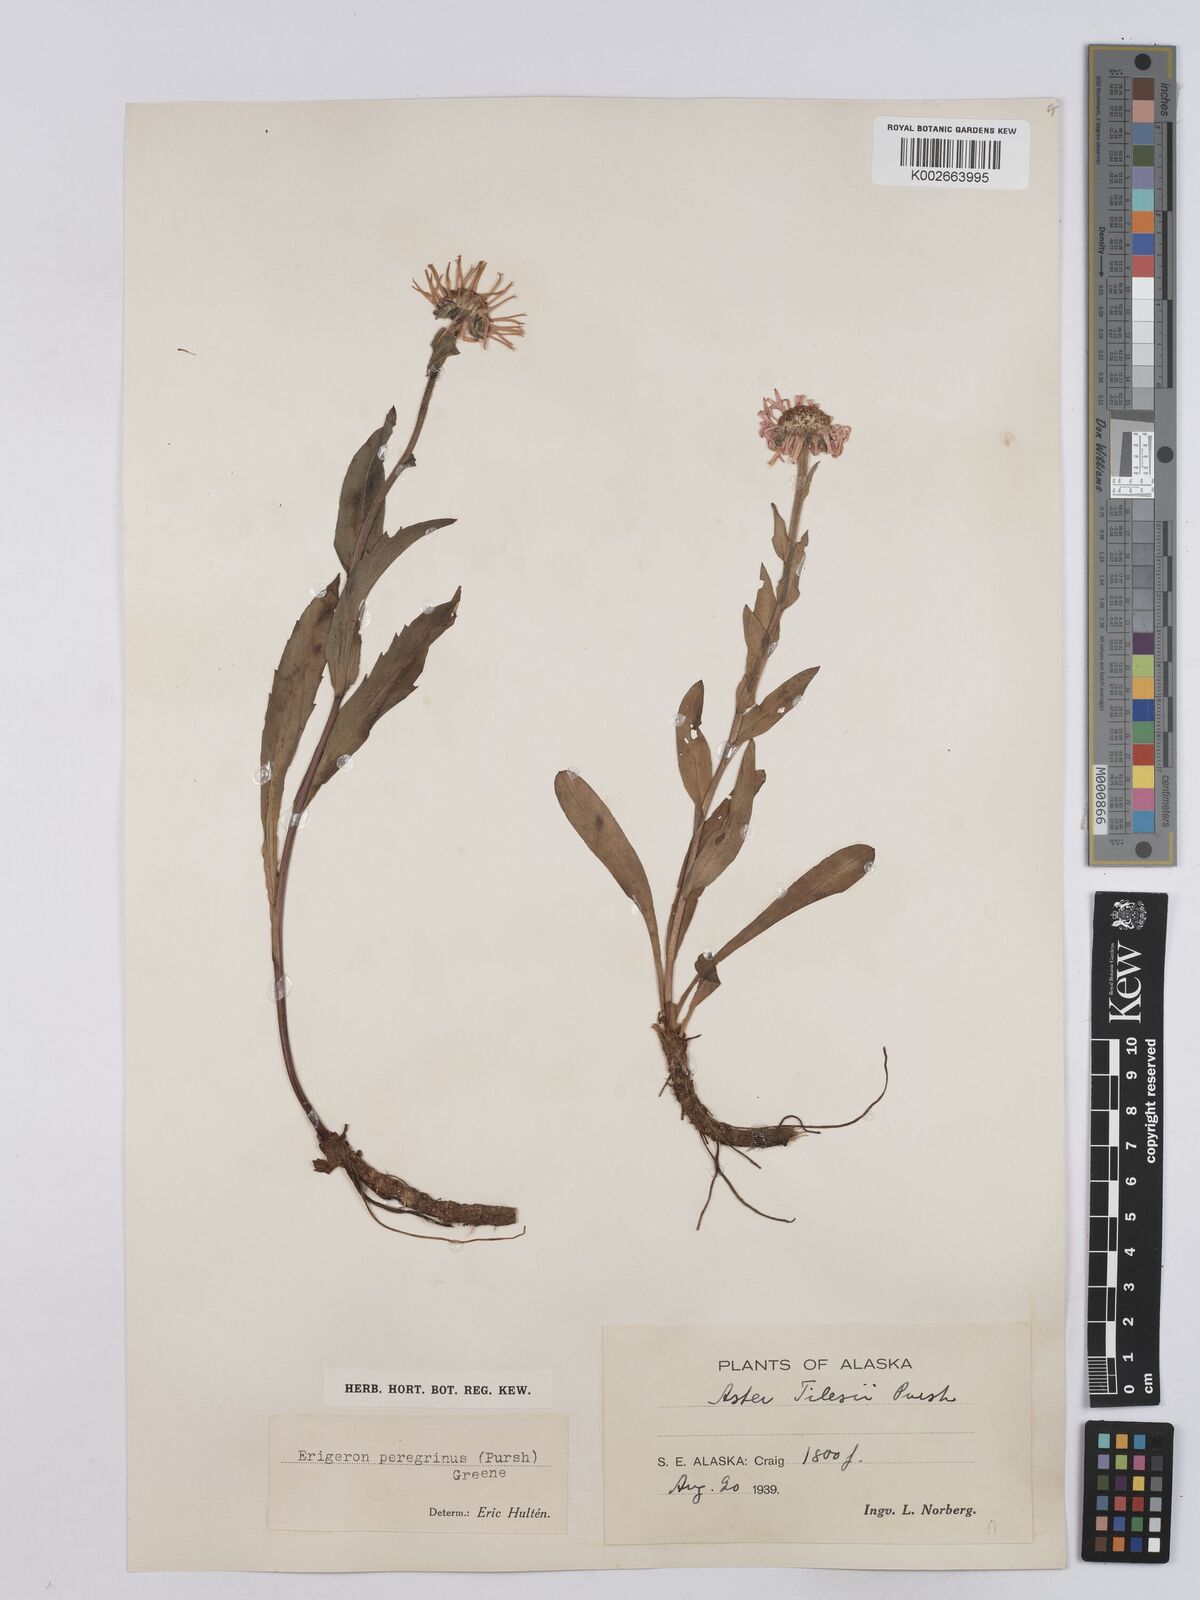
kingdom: Plantae
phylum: Tracheophyta
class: Magnoliopsida
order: Asterales
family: Asteraceae
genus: Erigeron
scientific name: Erigeron peregrinus
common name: Peregrine fleabane
